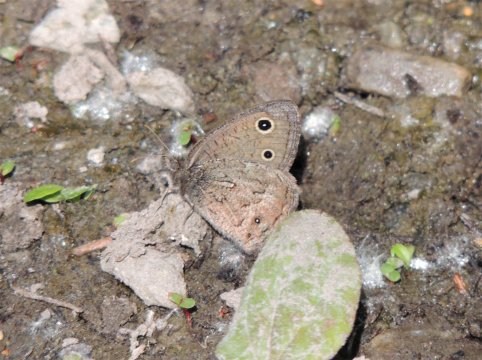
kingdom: Animalia
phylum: Arthropoda
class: Insecta
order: Lepidoptera
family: Nymphalidae
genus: Cercyonis
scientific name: Cercyonis oetus
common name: Small Wood-Nymph
